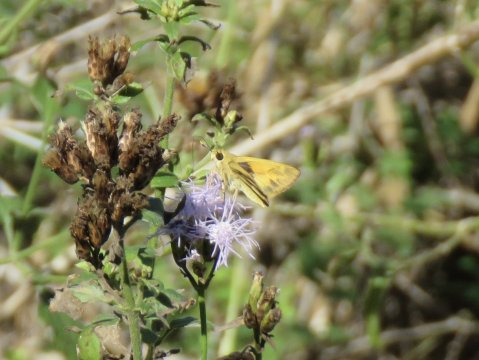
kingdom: Animalia
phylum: Arthropoda
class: Insecta
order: Lepidoptera
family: Hesperiidae
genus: Mellana
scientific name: Mellana eulogius
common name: Common Mellana
